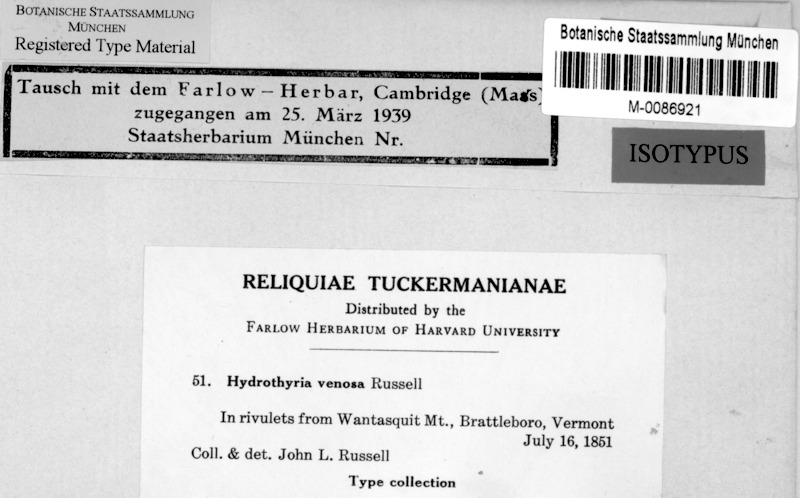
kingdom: Fungi
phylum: Ascomycota
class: Lecanoromycetes
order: Peltigerales
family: Peltigeraceae
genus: Peltigera
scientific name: Peltigera hydrothyria
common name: Aquatic pelt lichen
